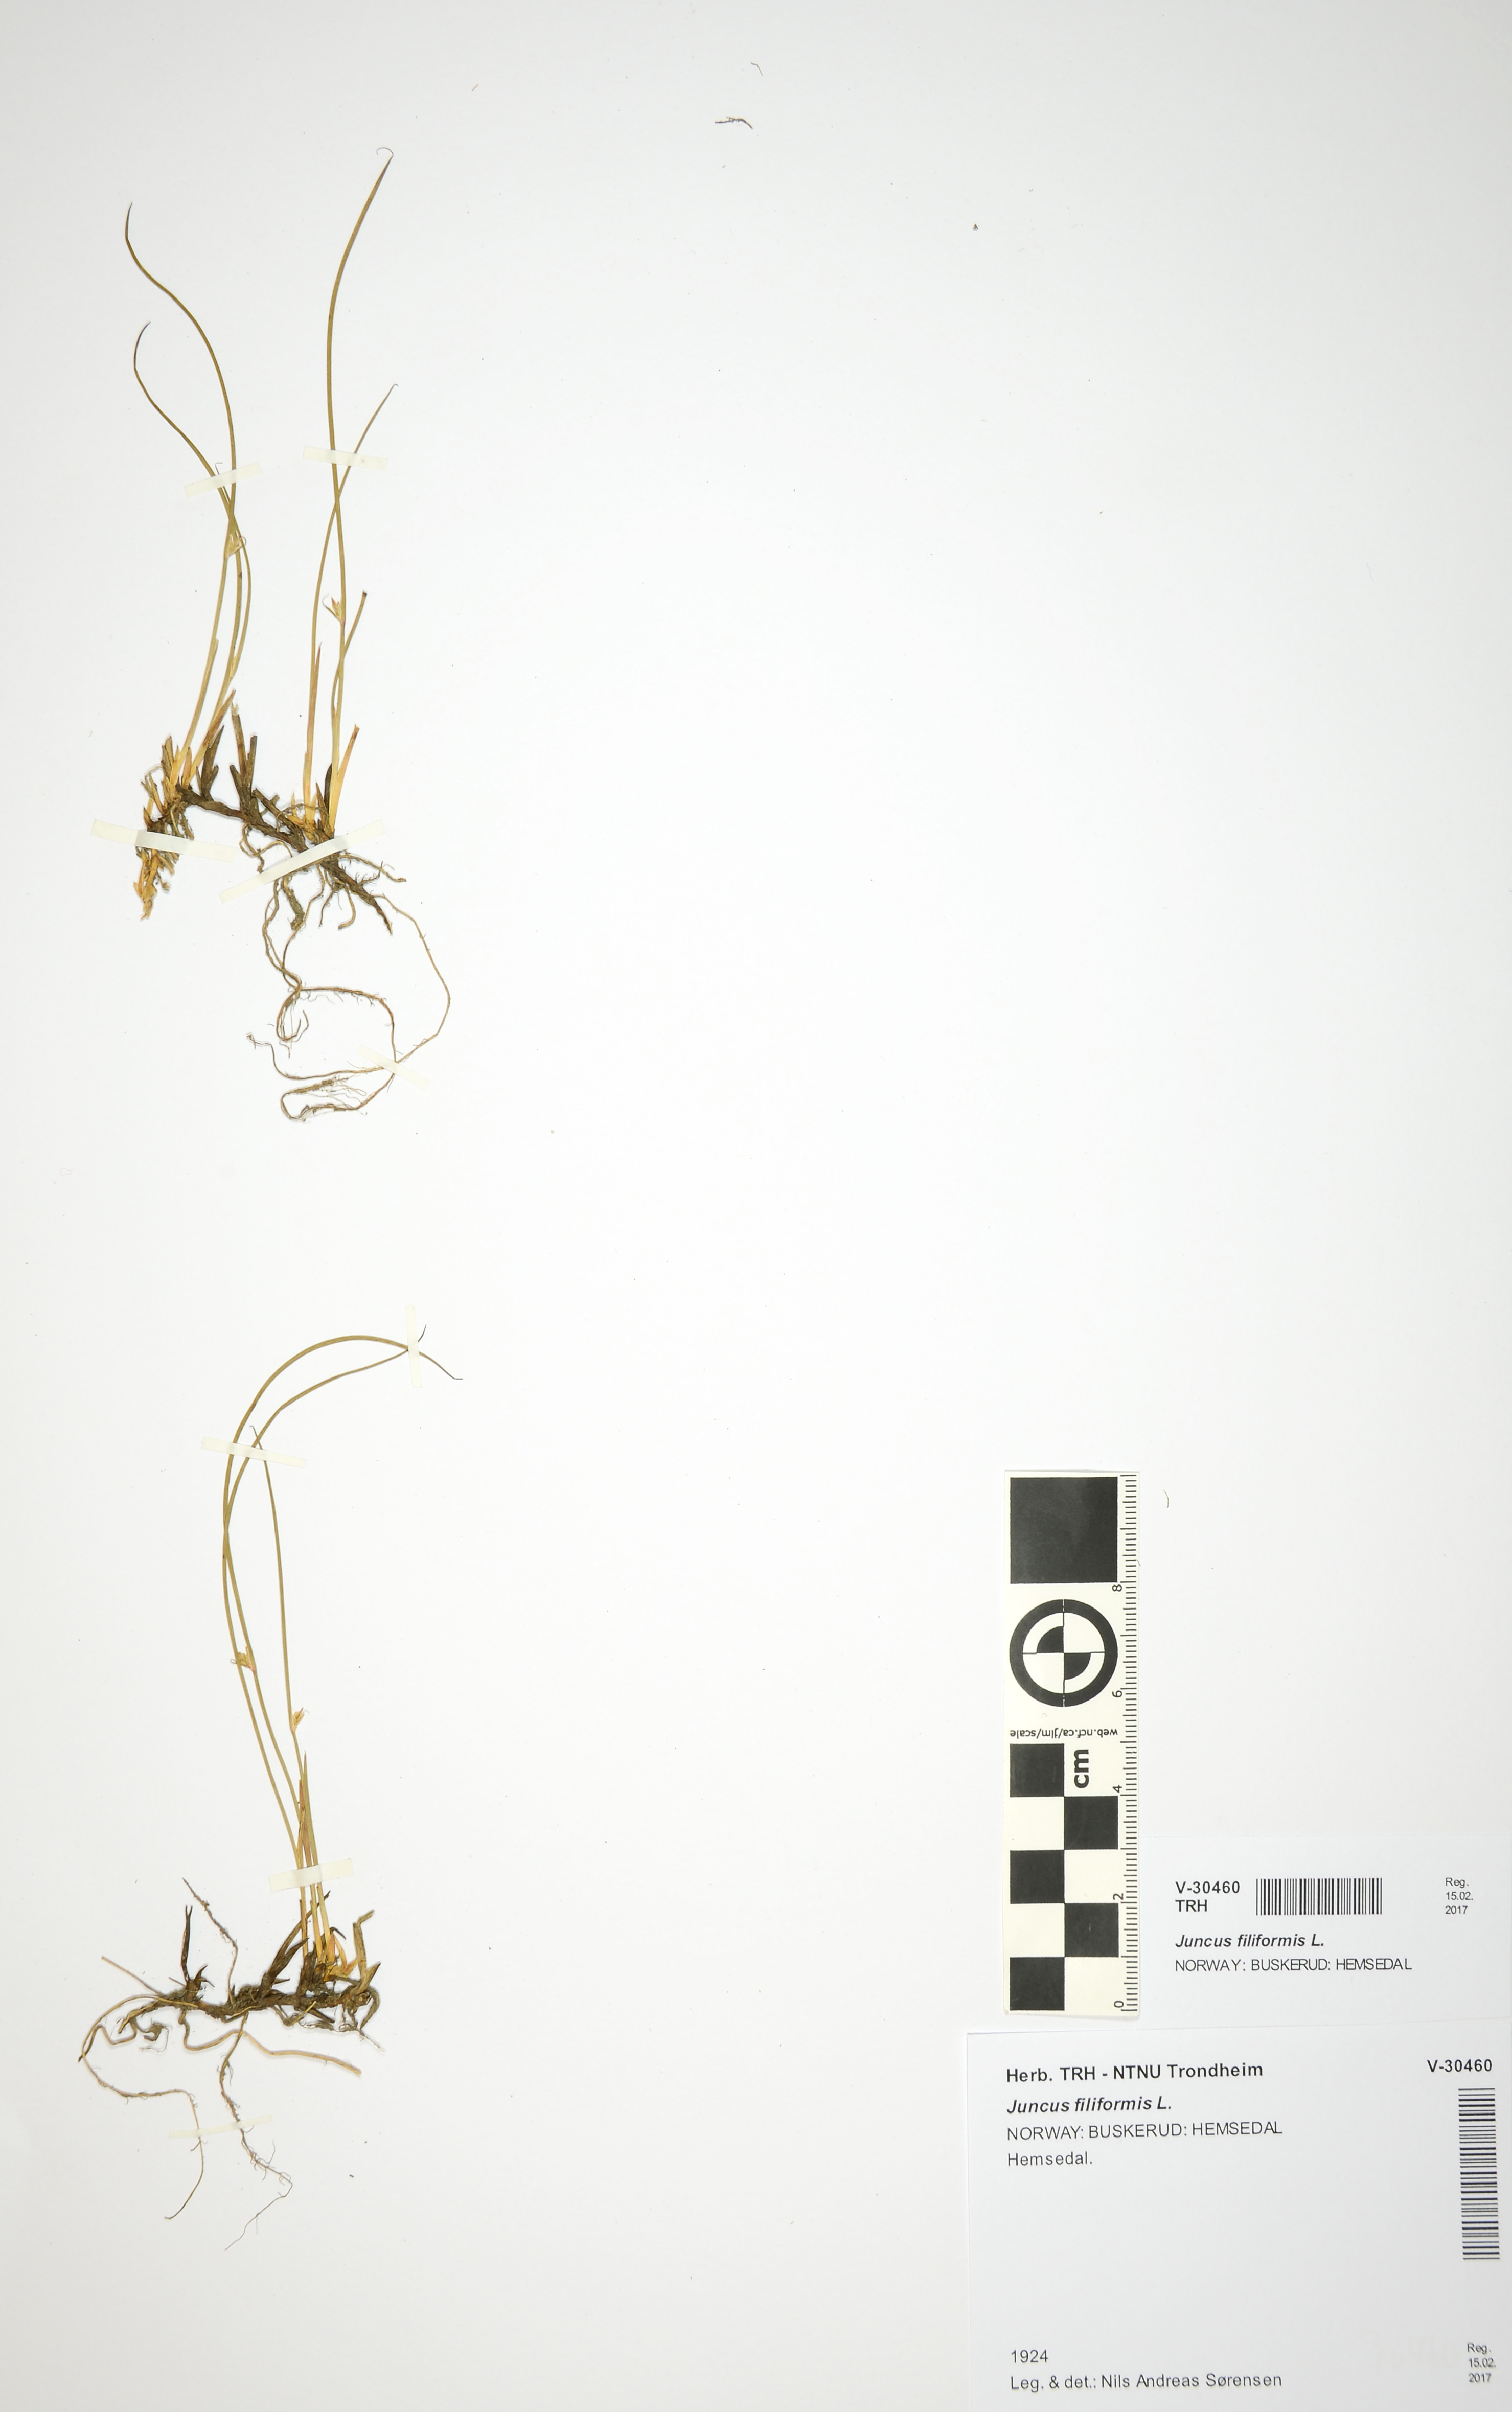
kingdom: Plantae
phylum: Tracheophyta
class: Liliopsida
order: Poales
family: Juncaceae
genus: Juncus
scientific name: Juncus filiformis
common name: Thread rush
